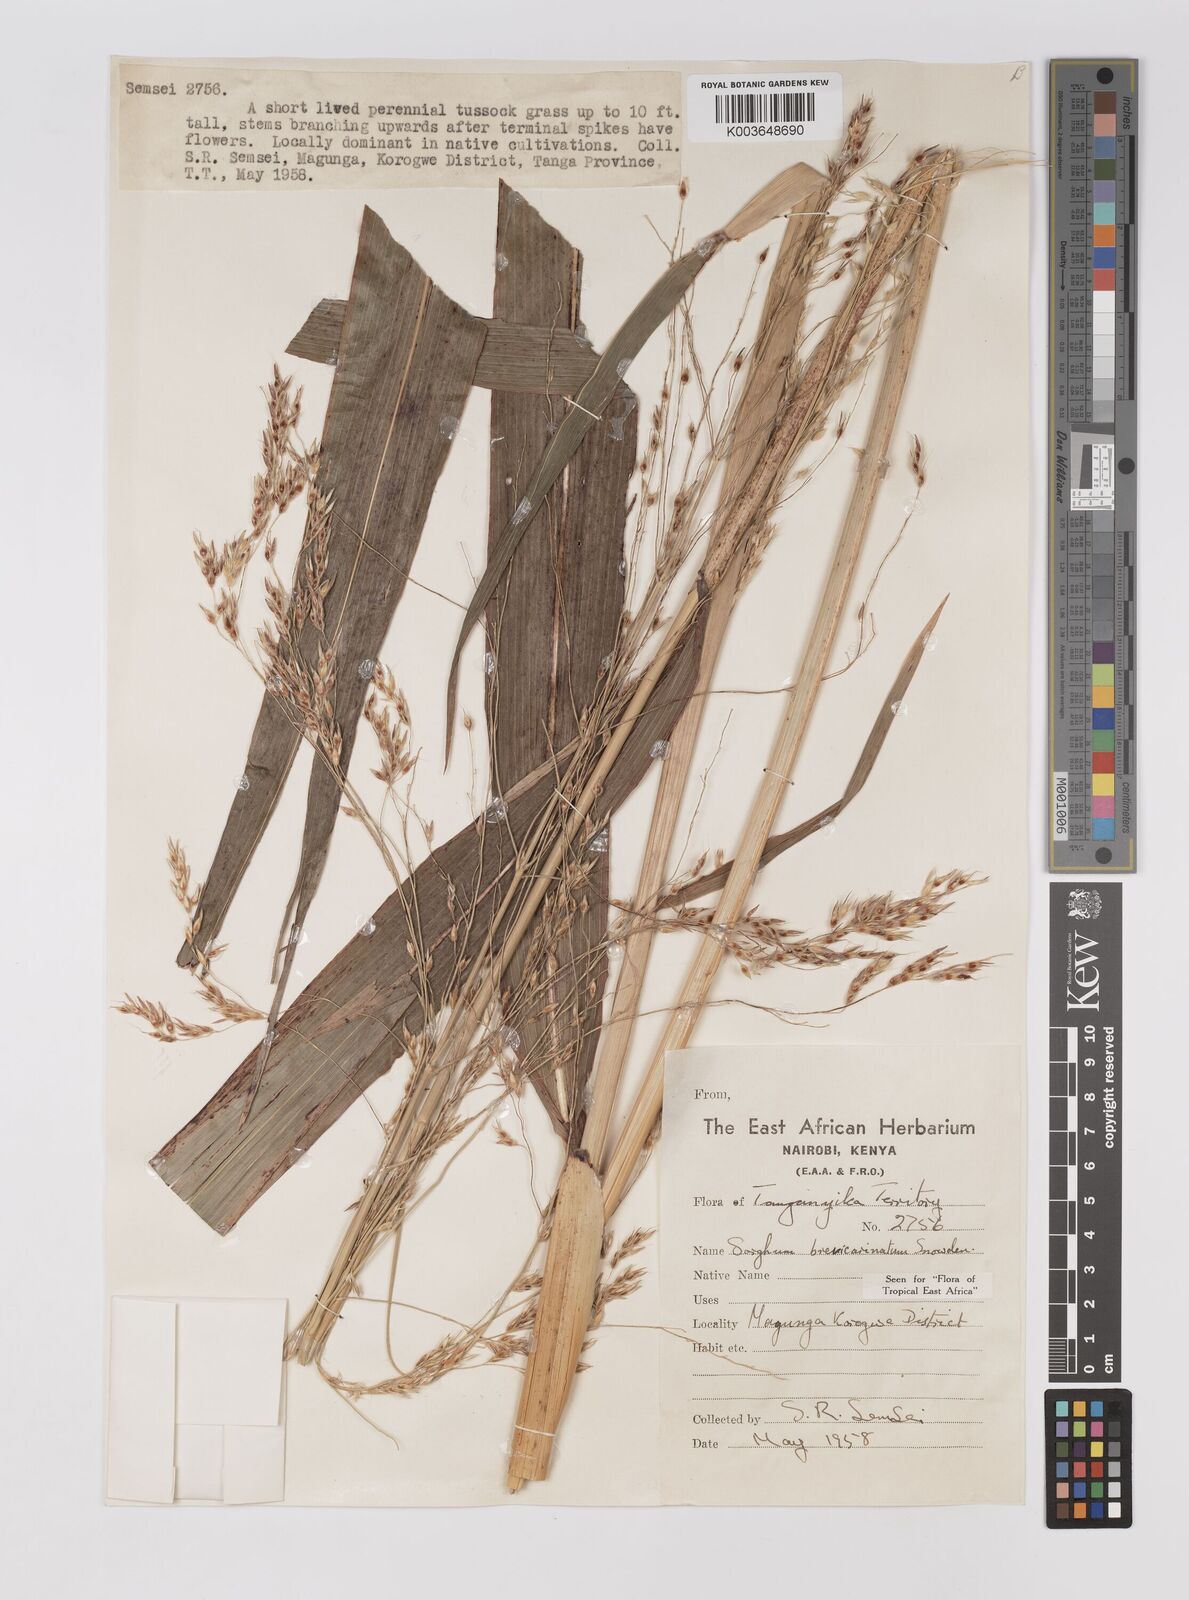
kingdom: Plantae
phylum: Tracheophyta
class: Liliopsida
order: Poales
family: Poaceae
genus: Sorghum
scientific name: Sorghum arundinaceum
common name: Sorghum
